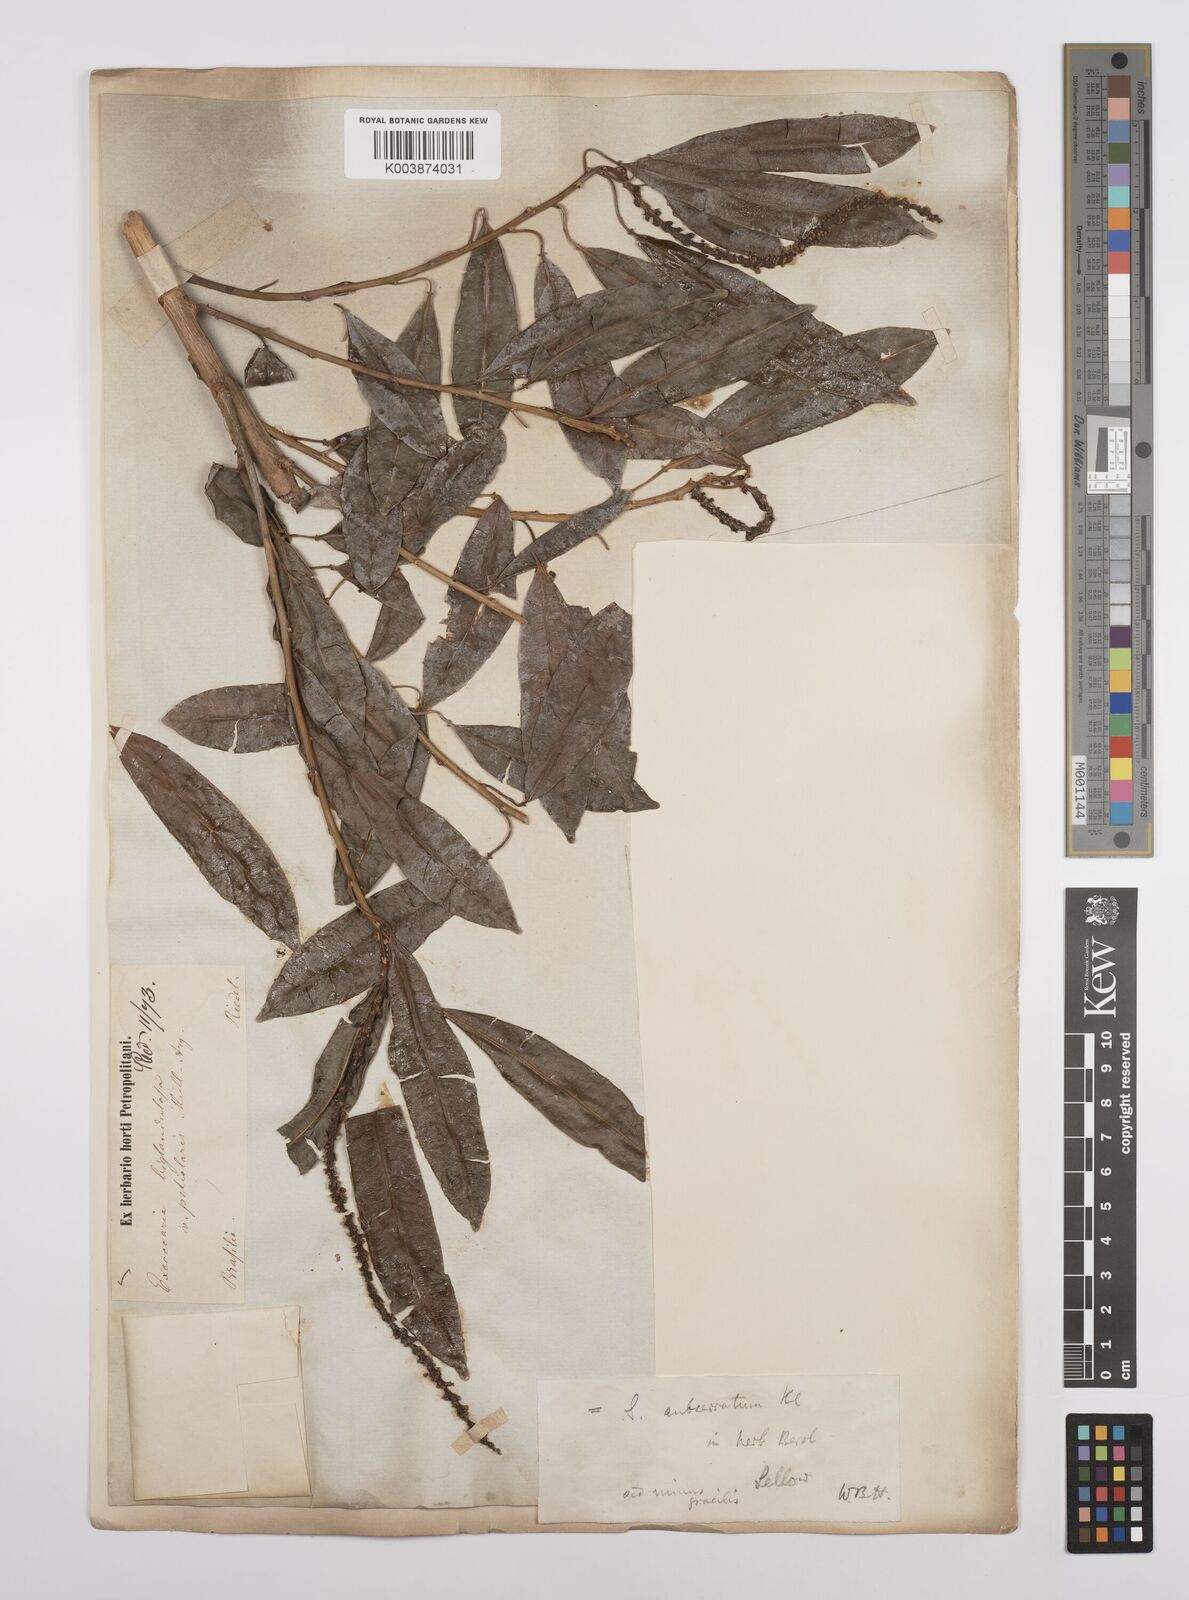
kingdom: Plantae
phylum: Tracheophyta
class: Magnoliopsida
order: Malpighiales
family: Euphorbiaceae
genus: Sapium
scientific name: Sapium glandulosum
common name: Milktree
